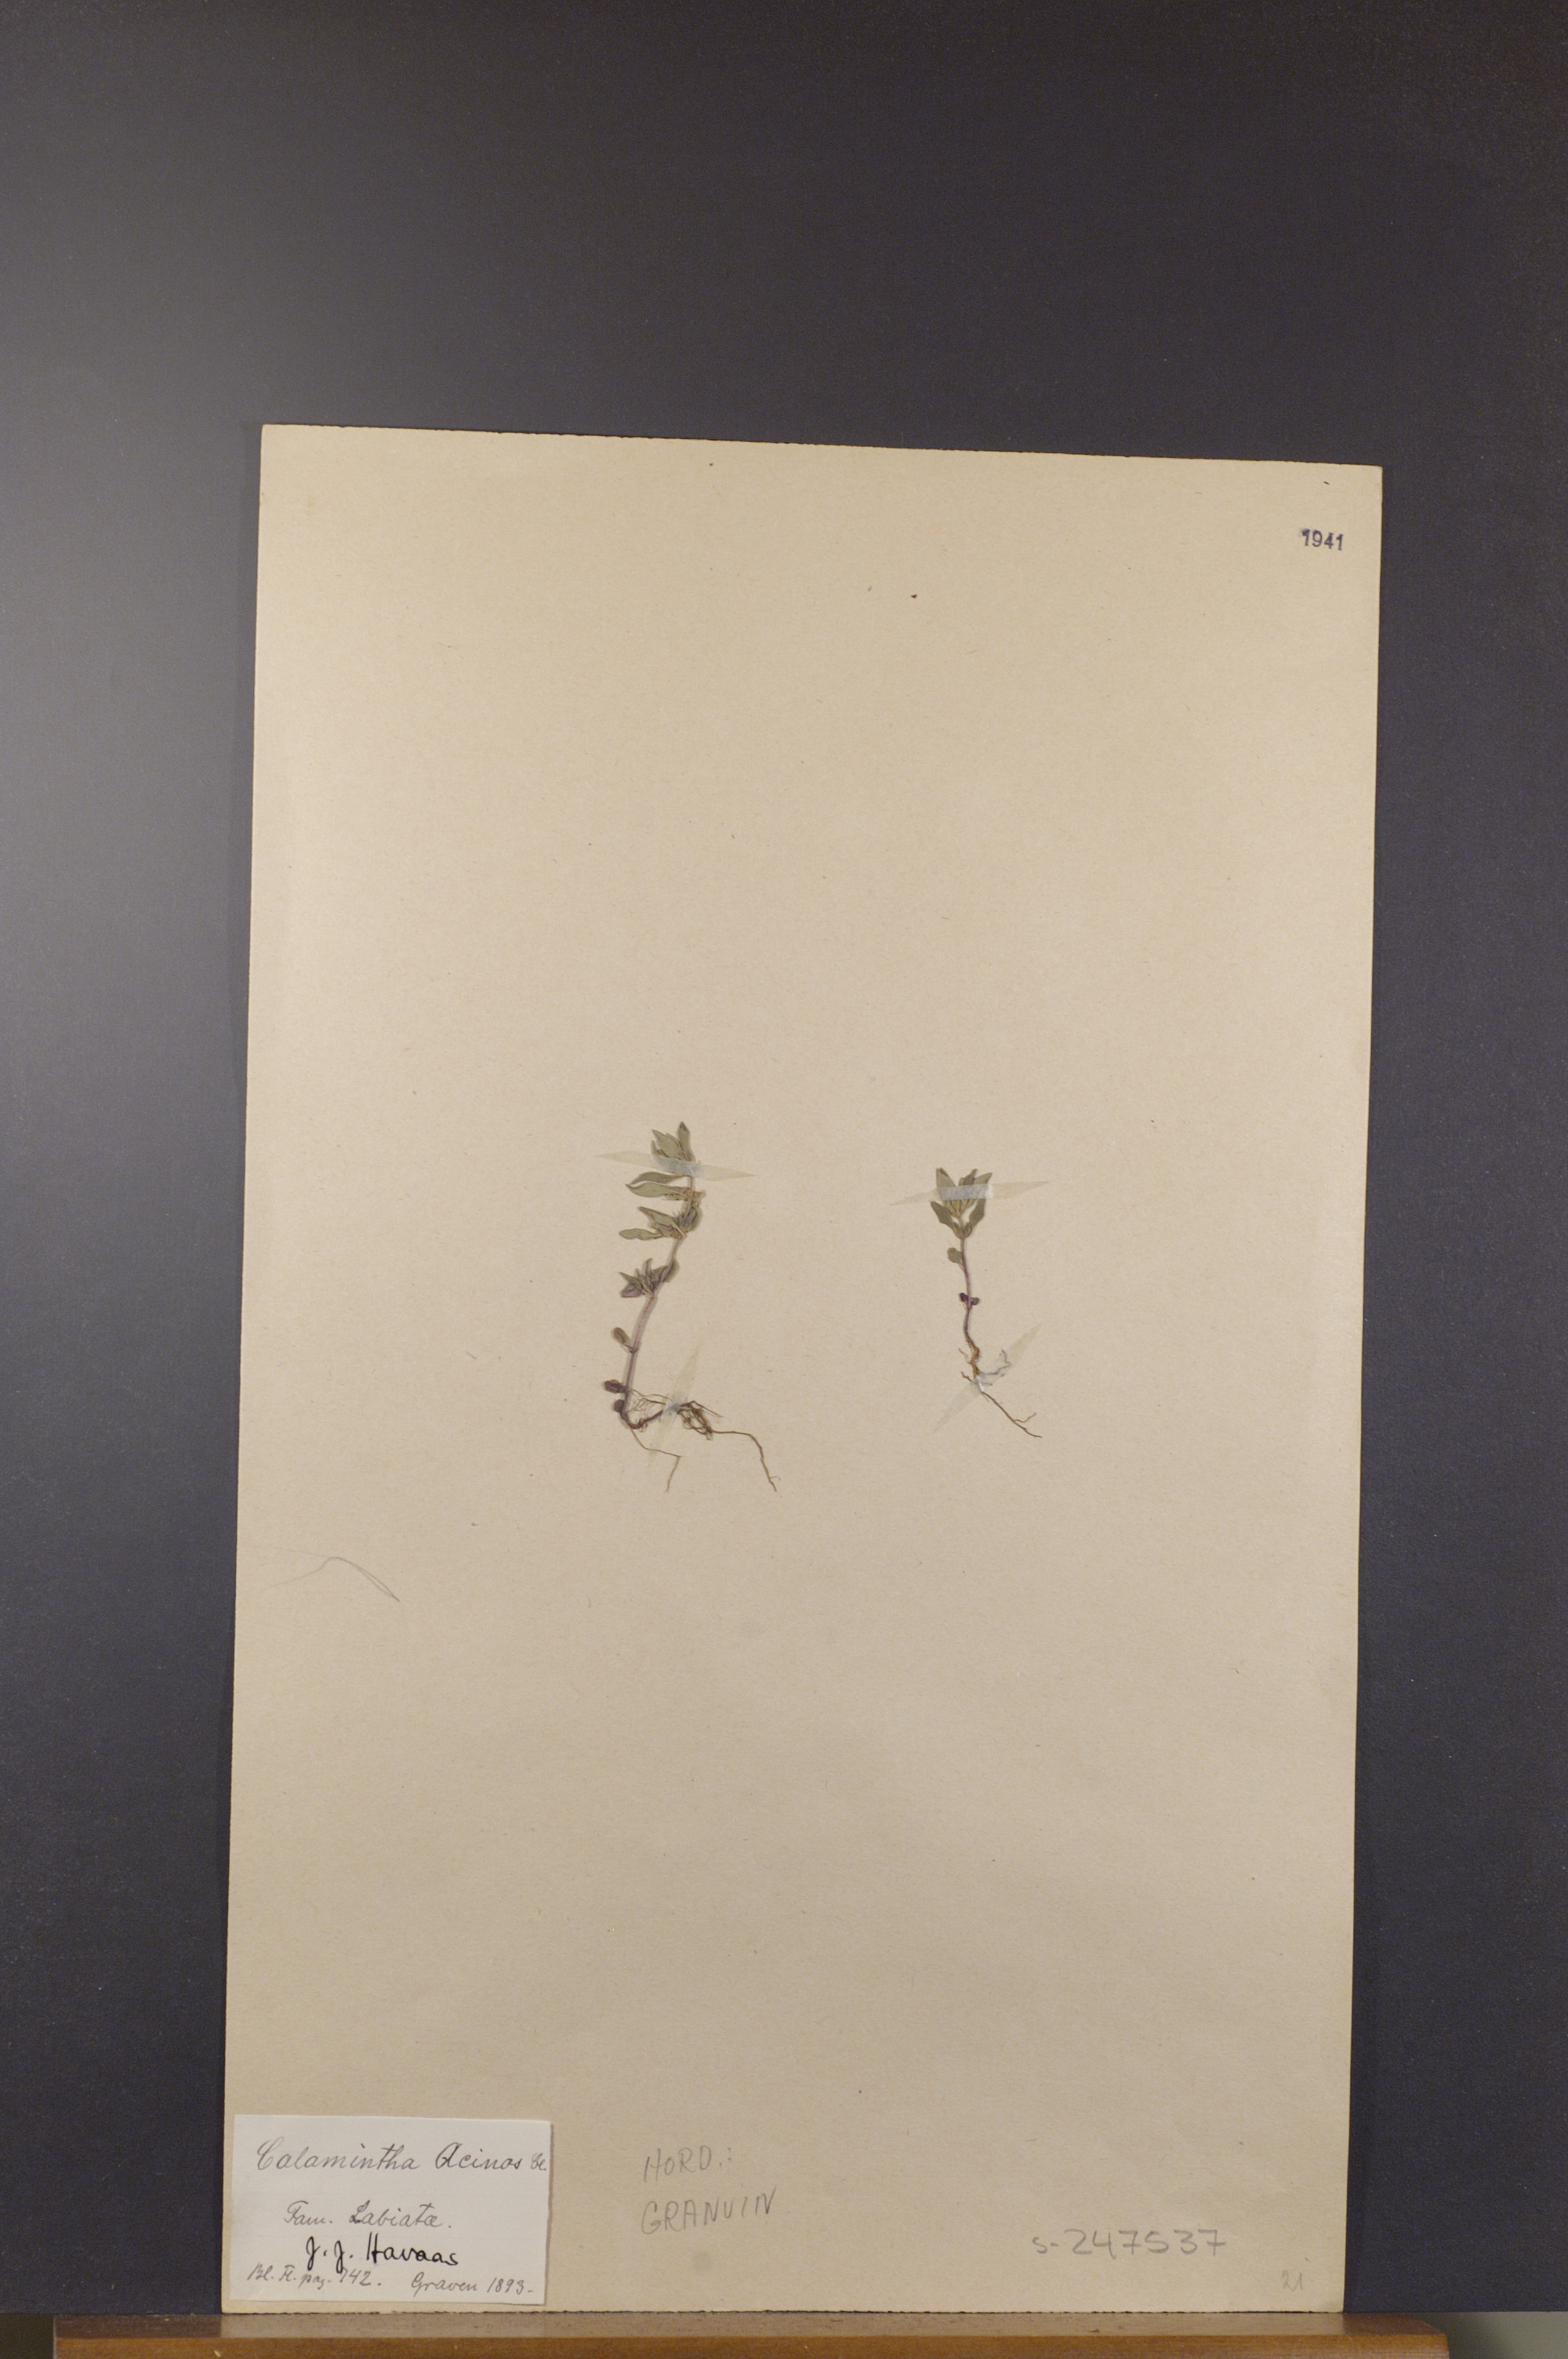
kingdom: Plantae
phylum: Tracheophyta
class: Magnoliopsida
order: Lamiales
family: Lamiaceae
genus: Clinopodium
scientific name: Clinopodium acinos
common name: Basil thyme
